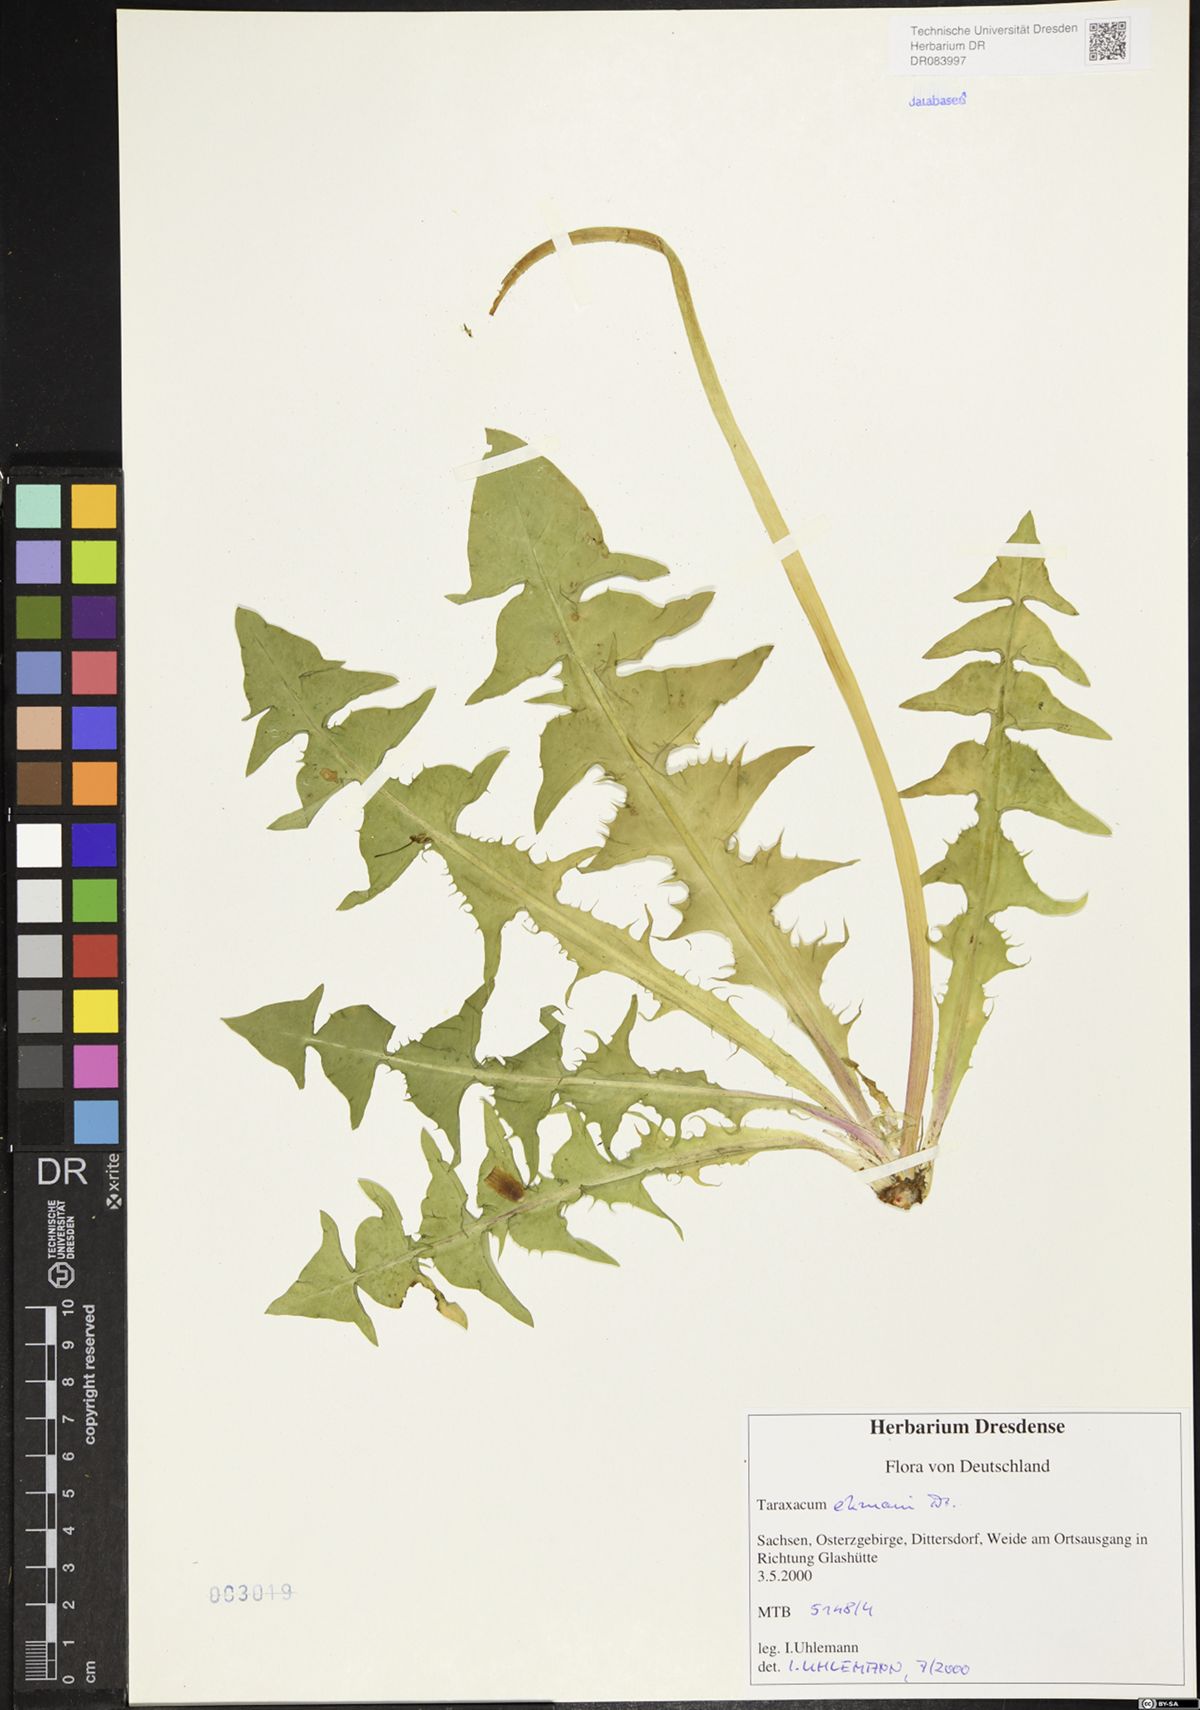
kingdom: Plantae
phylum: Tracheophyta
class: Magnoliopsida
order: Asterales
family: Asteraceae
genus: Taraxacum
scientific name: Taraxacum ekmanii
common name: Ekman's dandelion
